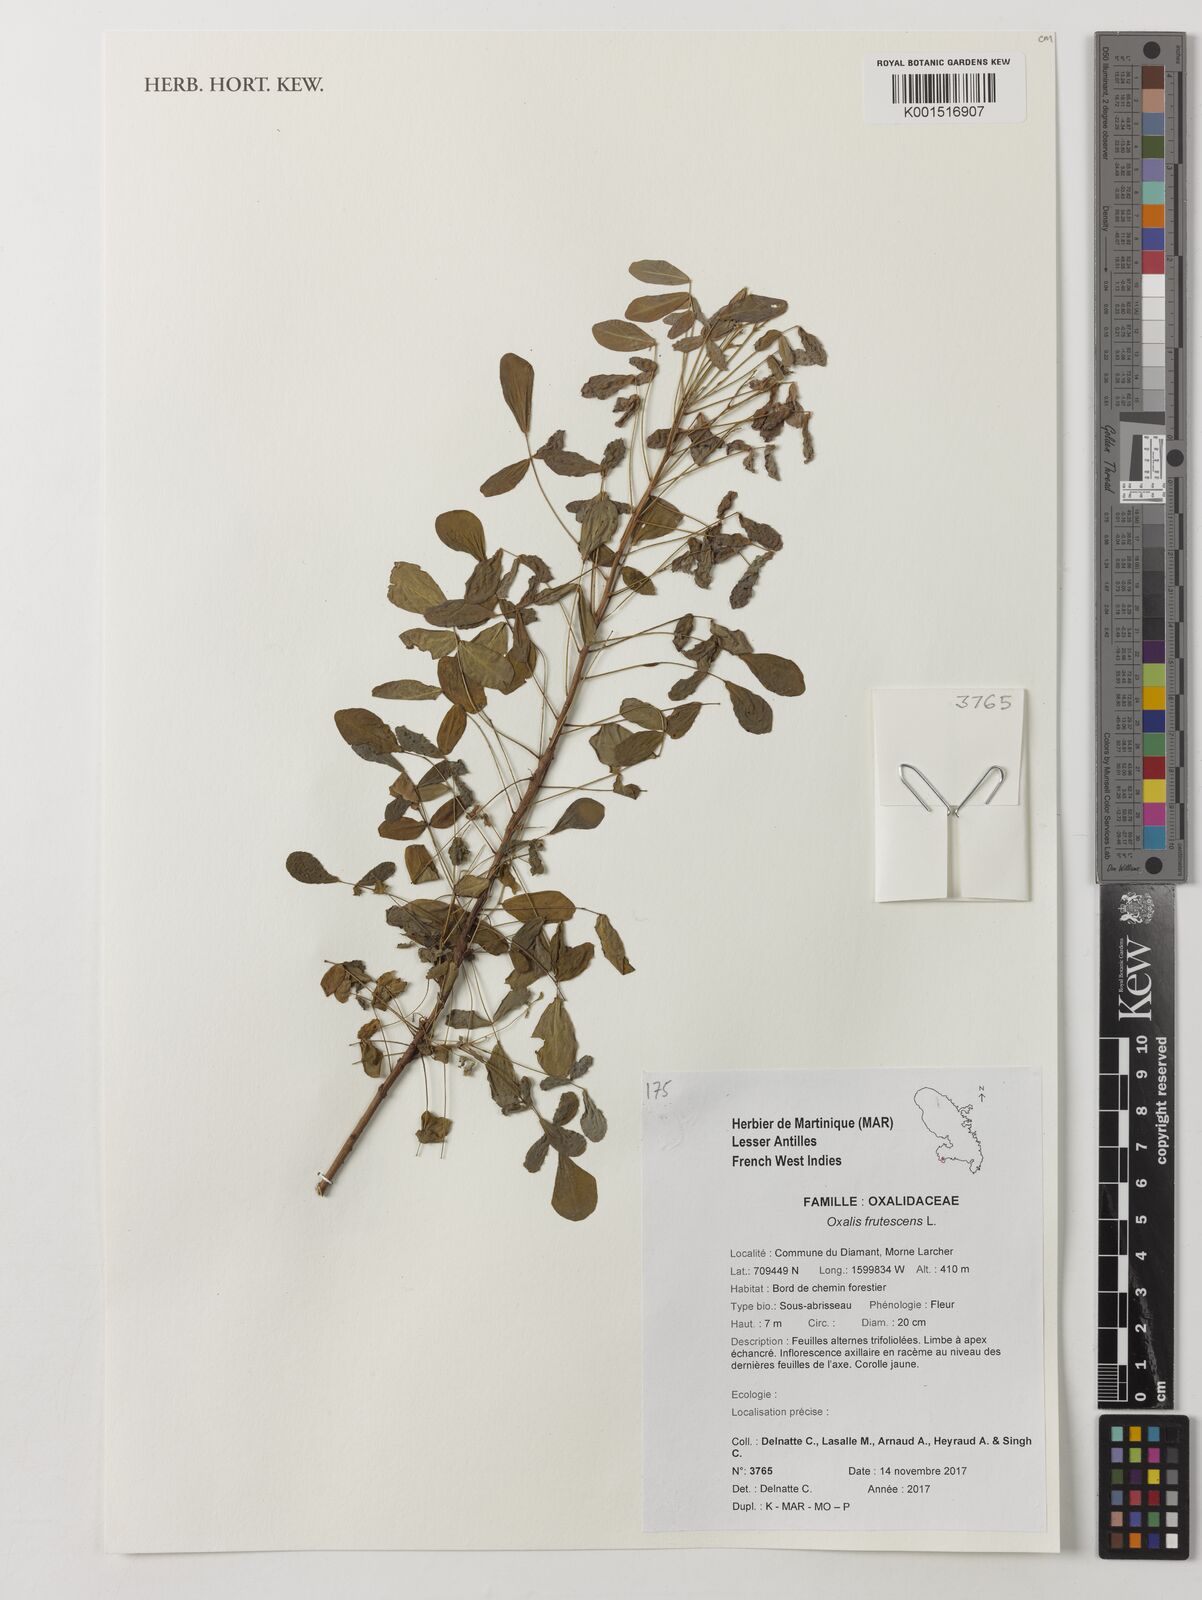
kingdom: Plantae
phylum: Tracheophyta
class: Magnoliopsida
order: Oxalidales
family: Oxalidaceae
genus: Oxalis
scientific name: Oxalis frutescens
